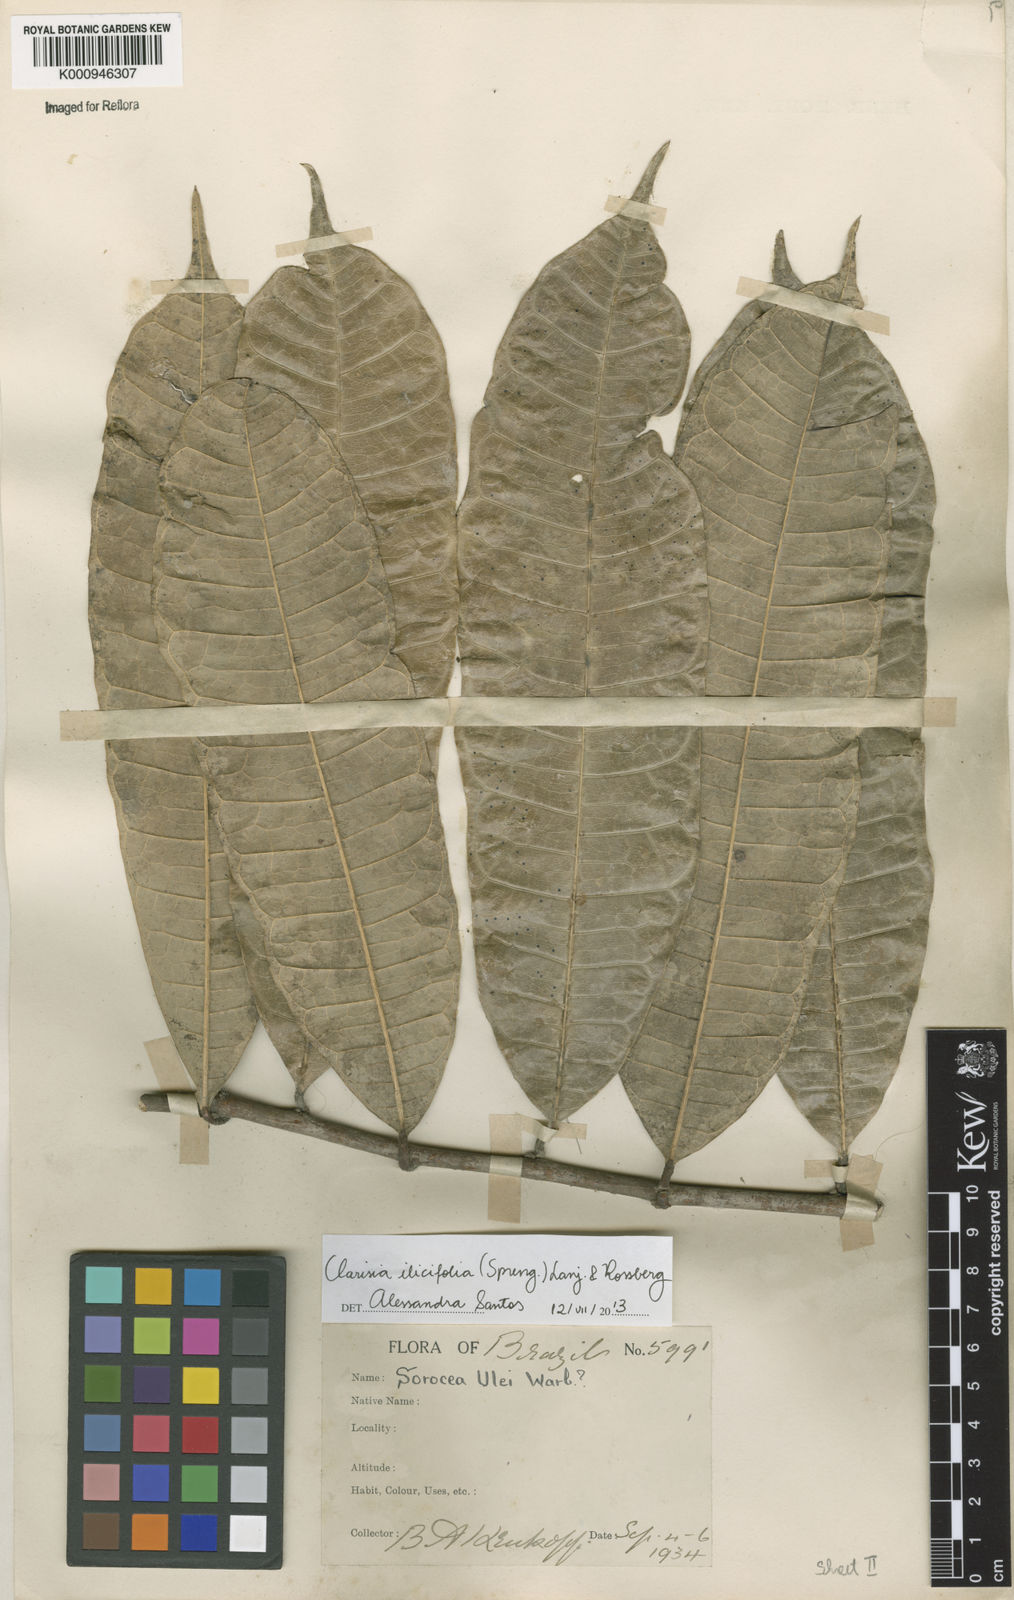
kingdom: Plantae
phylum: Tracheophyta
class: Magnoliopsida
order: Rosales
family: Moraceae
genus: Clarisia
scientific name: Clarisia ilicifolia
